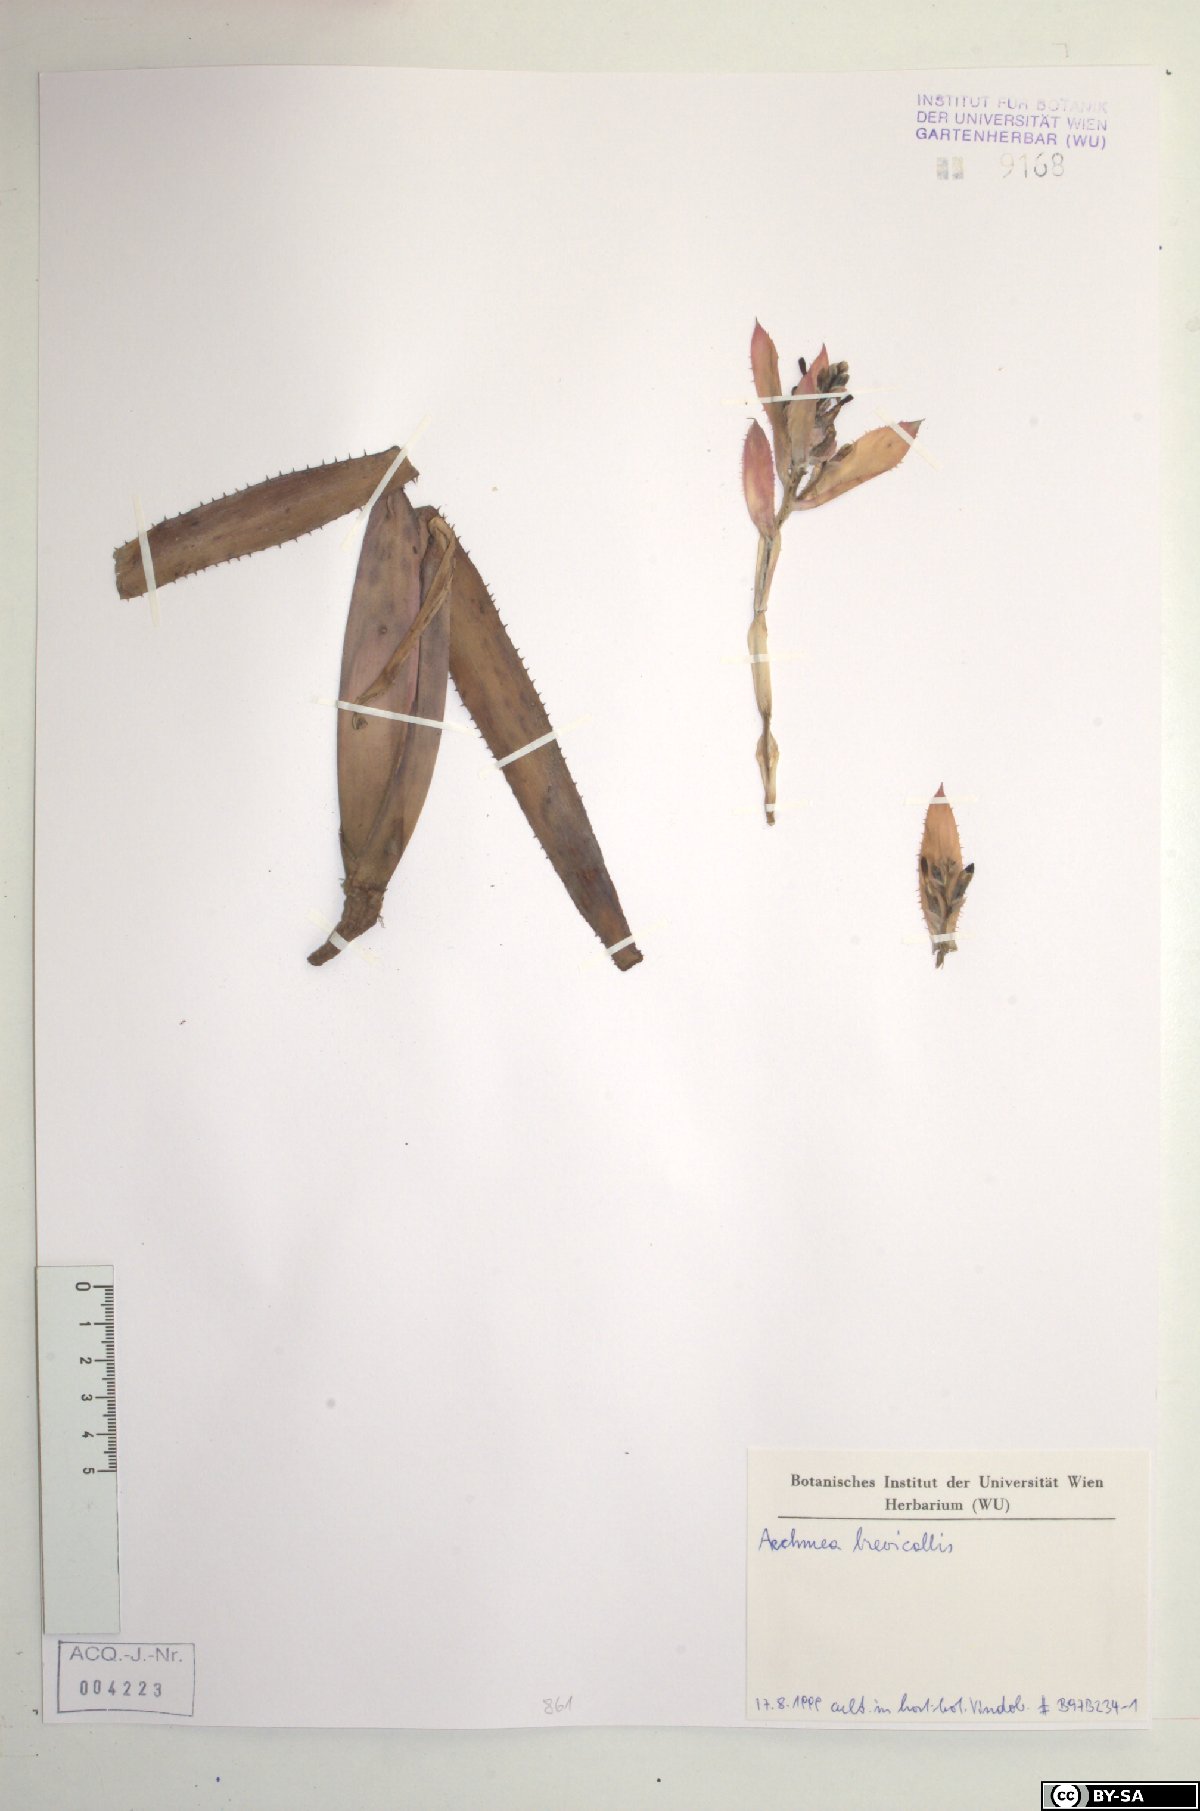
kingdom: Plantae
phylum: Tracheophyta
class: Liliopsida
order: Poales
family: Bromeliaceae
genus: Aechmea
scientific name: Aechmea
